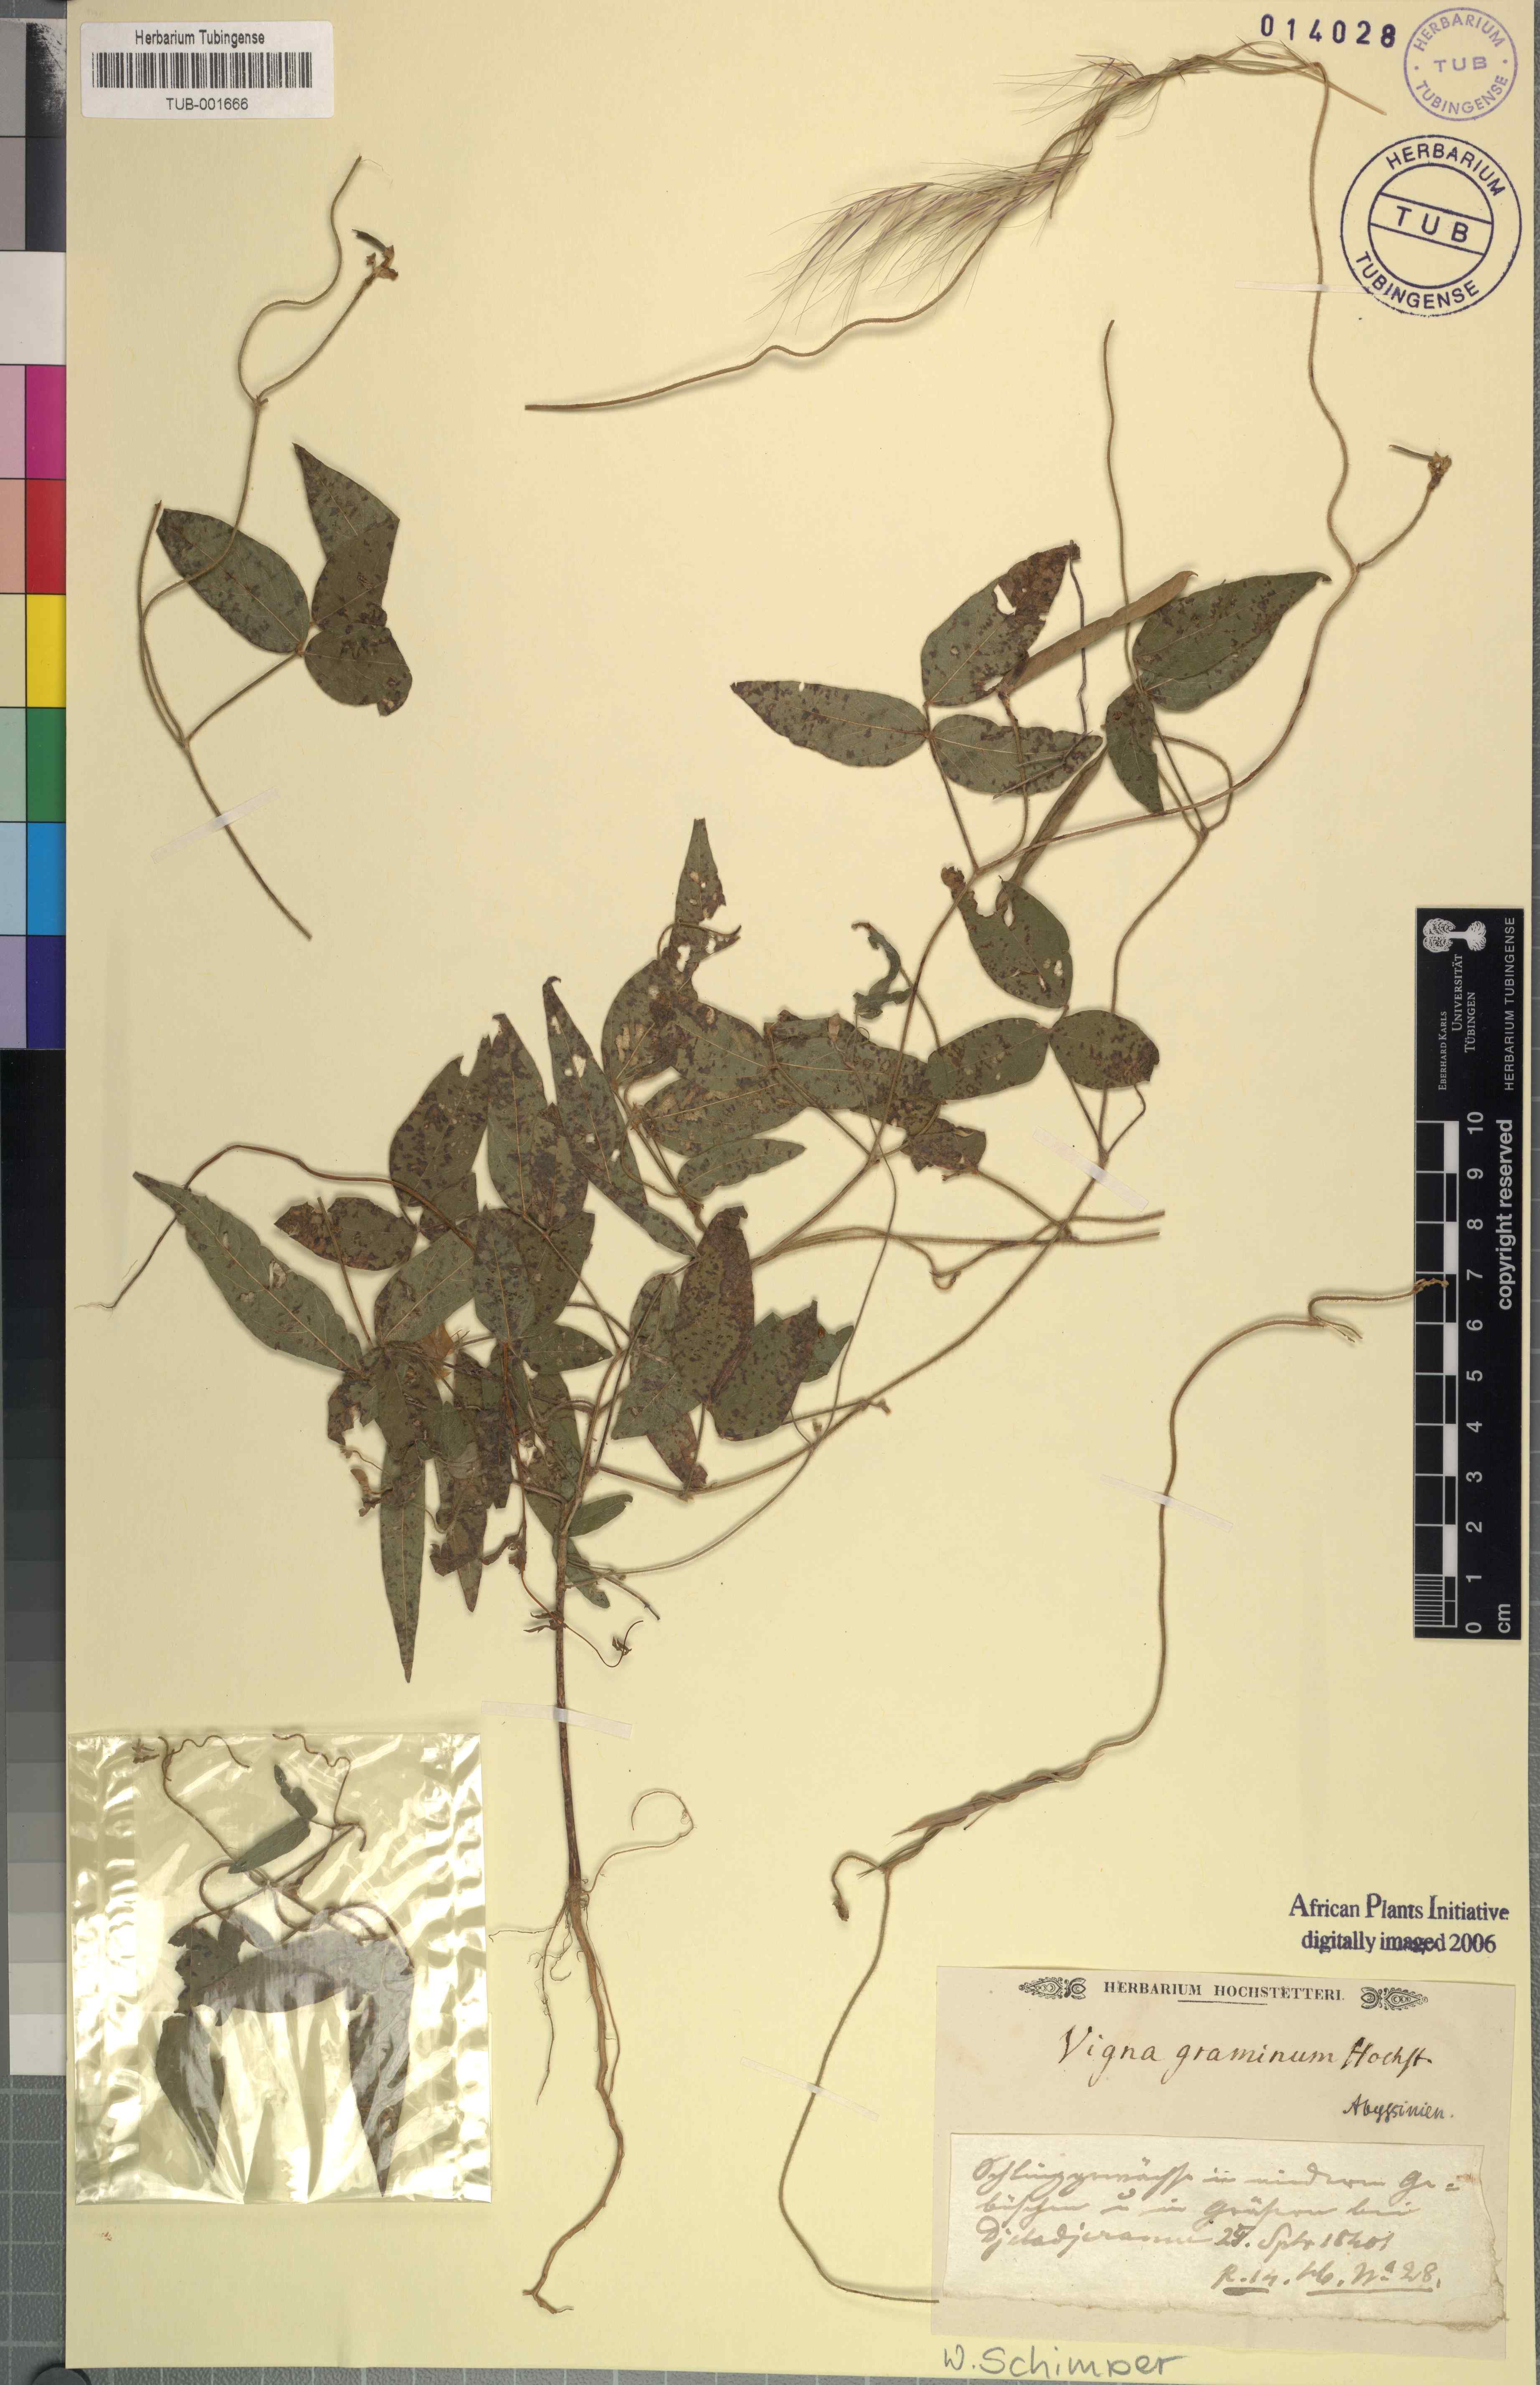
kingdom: Plantae
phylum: Tracheophyta
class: Magnoliopsida
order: Fabales
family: Fabaceae
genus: Vigna
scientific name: Vigna
